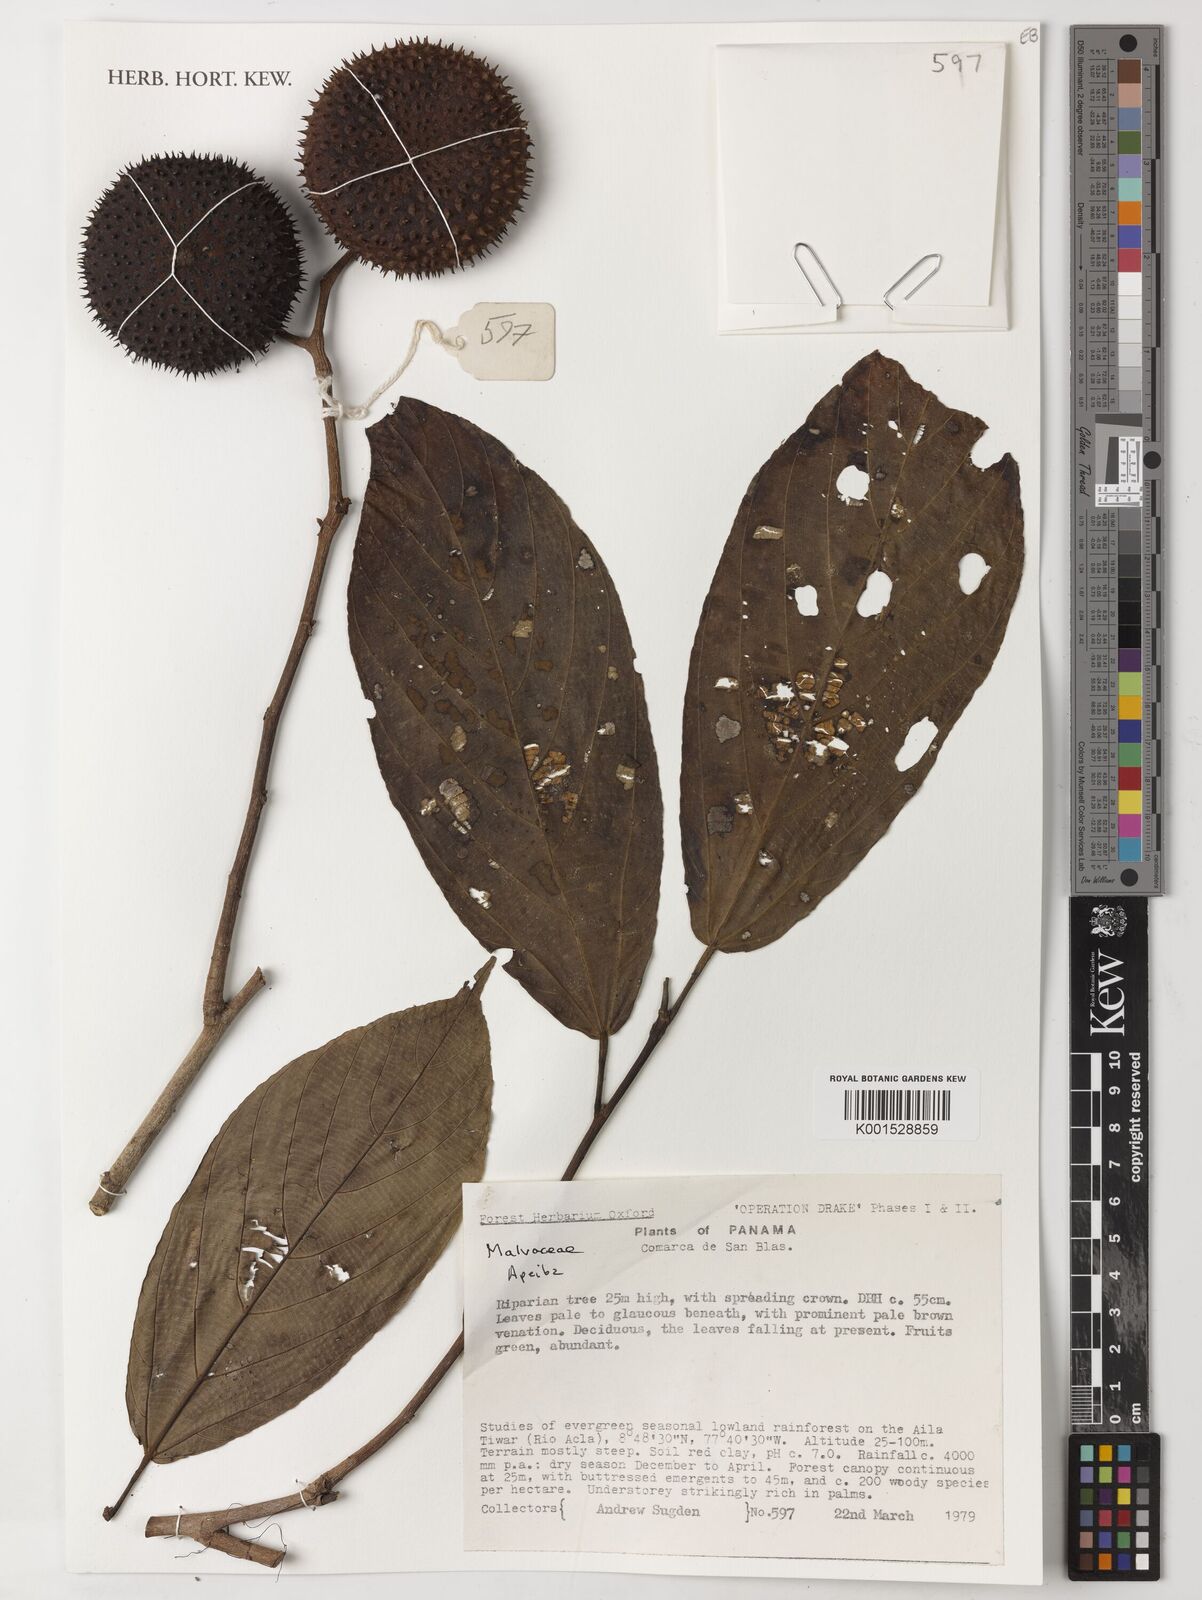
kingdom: Plantae
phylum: Tracheophyta
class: Magnoliopsida
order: Malvales
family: Malvaceae
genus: Apeiba
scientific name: Apeiba
